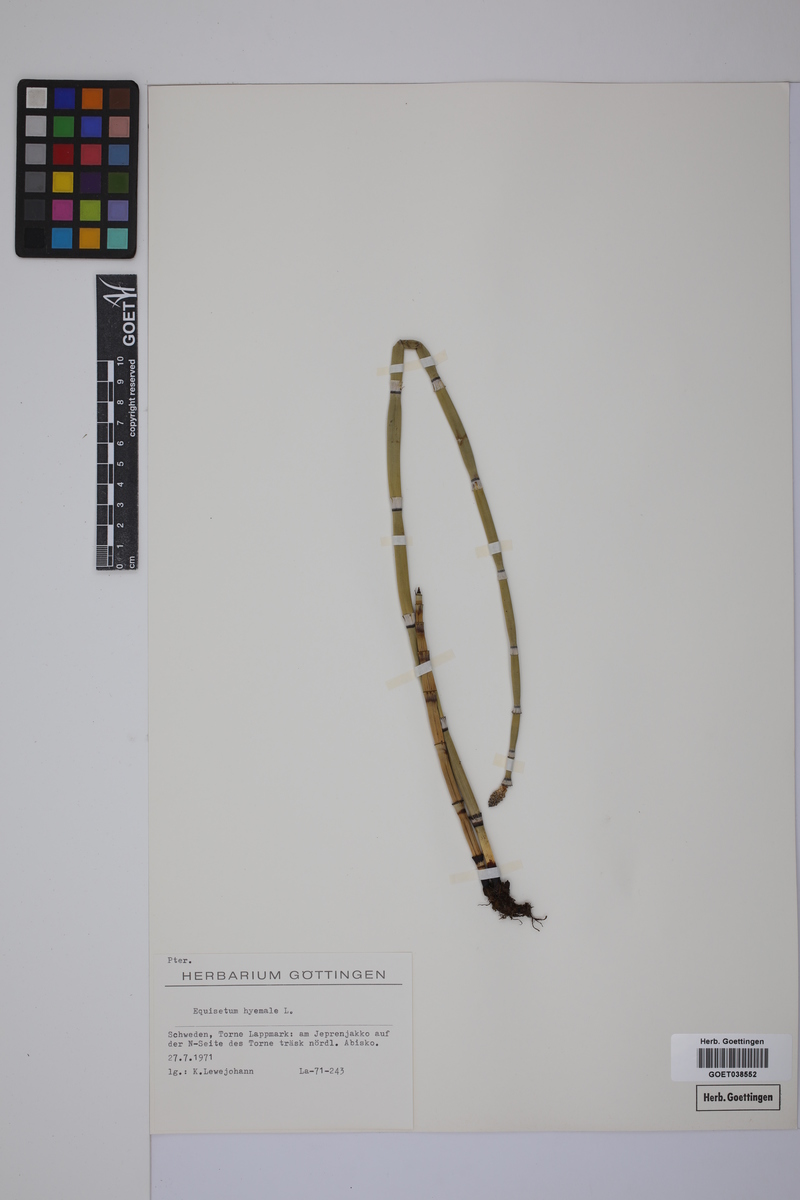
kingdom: Plantae
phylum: Tracheophyta
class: Polypodiopsida
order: Equisetales
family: Equisetaceae
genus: Equisetum
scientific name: Equisetum hyemale
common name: Rough horsetail
